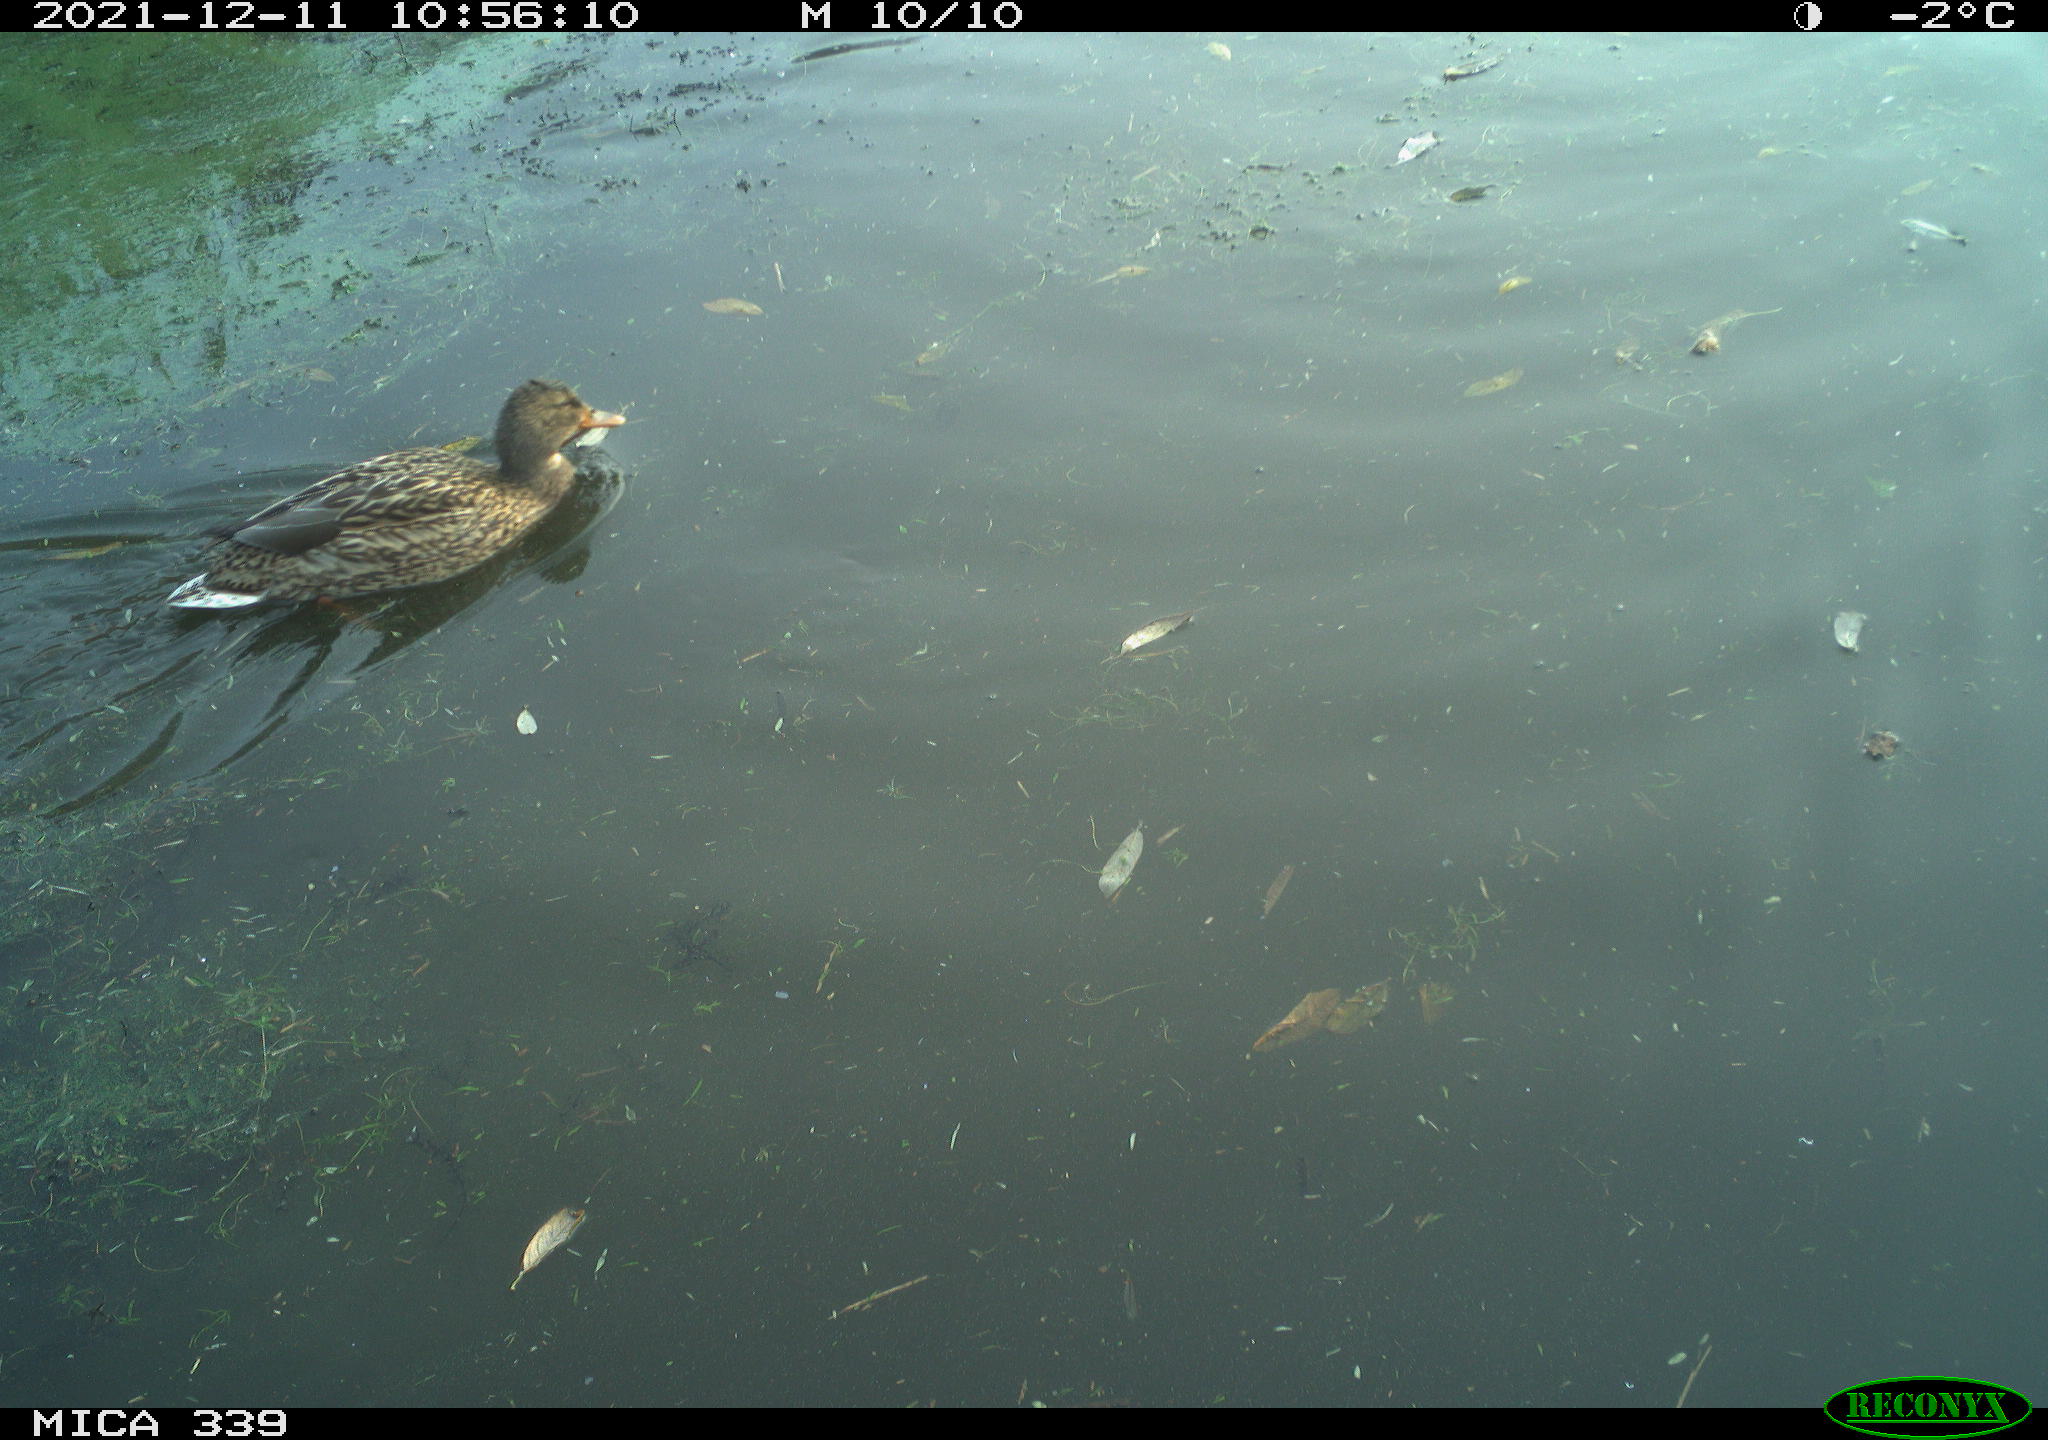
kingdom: Animalia
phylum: Chordata
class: Aves
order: Anseriformes
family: Anatidae
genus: Anas
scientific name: Anas platyrhynchos
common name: Mallard
